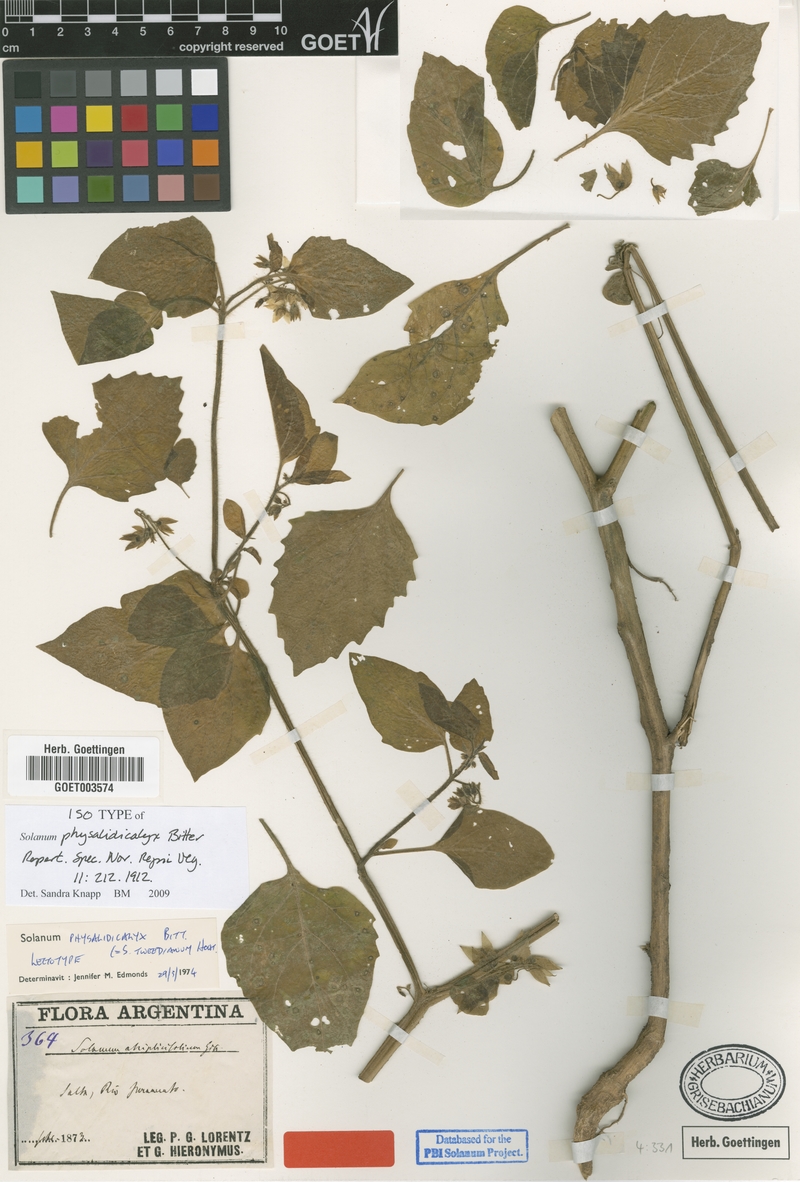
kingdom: Plantae
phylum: Tracheophyta
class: Magnoliopsida
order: Solanales
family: Solanaceae
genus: Solanum
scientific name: Solanum physalidicalyx
